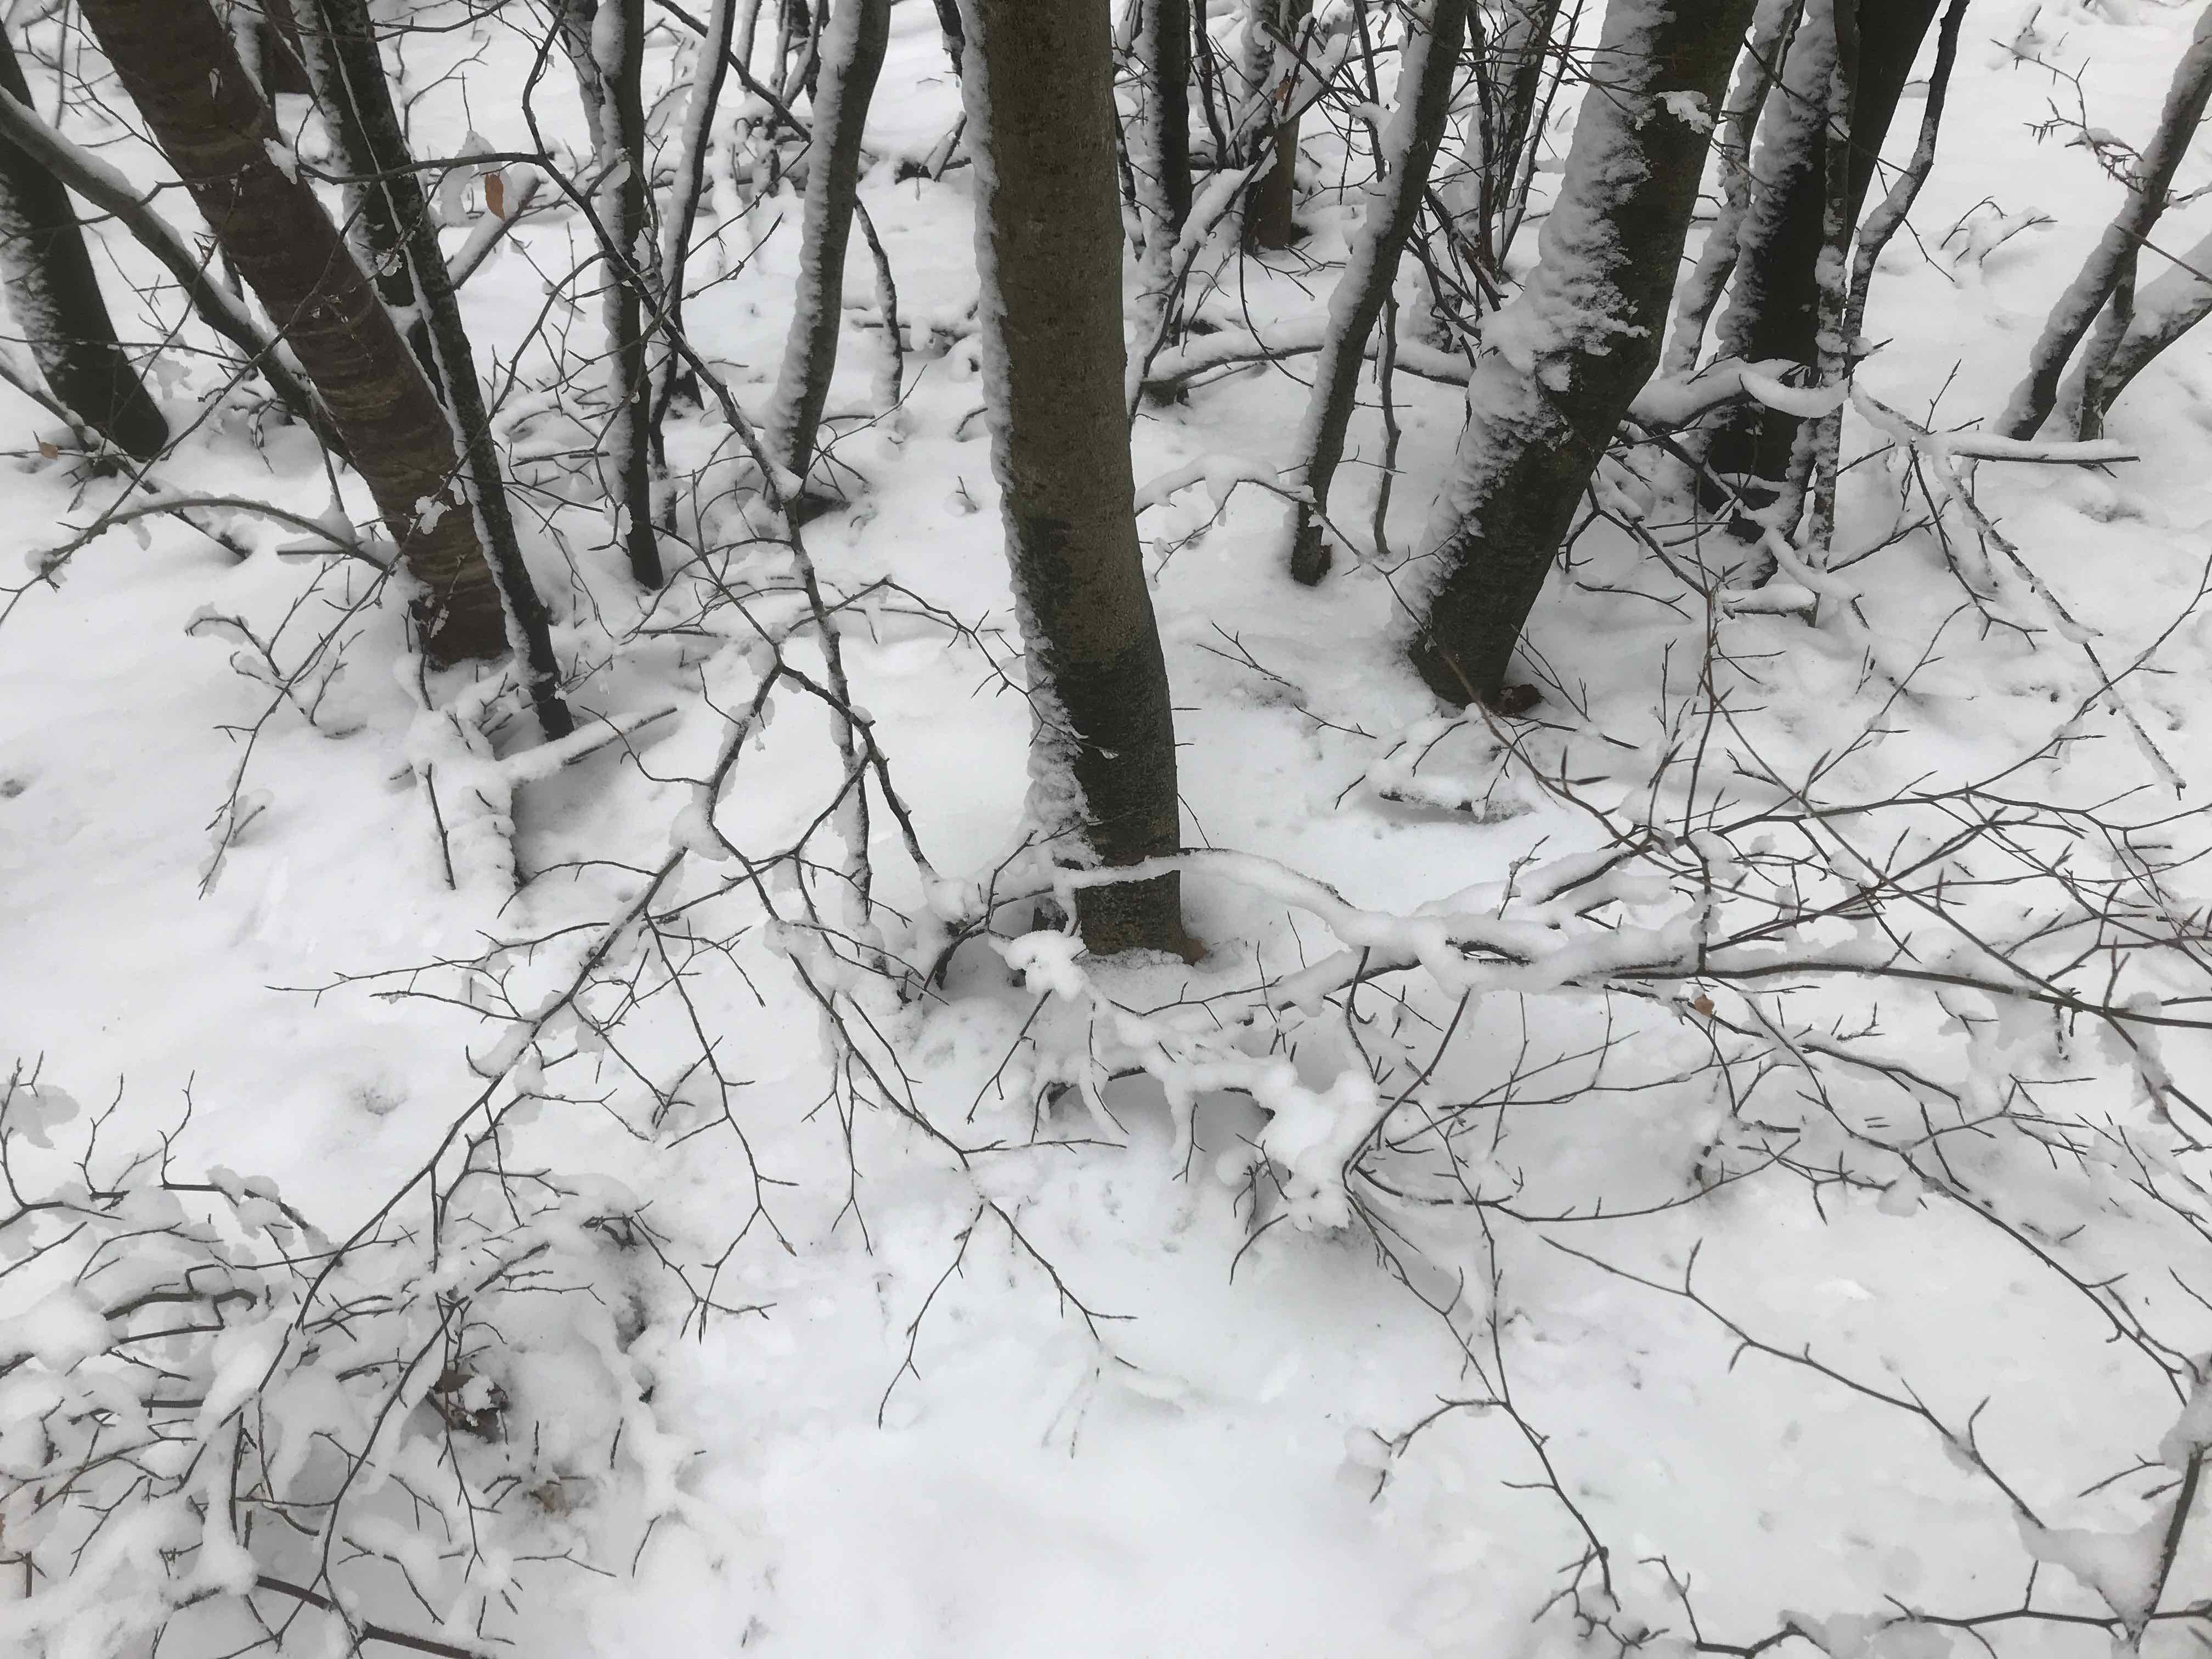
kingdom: Fungi
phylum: Ascomycota
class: Leotiomycetes
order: Rhytismatales
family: Ascodichaenaceae
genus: Ascodichaena
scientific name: Ascodichaena rugosa
